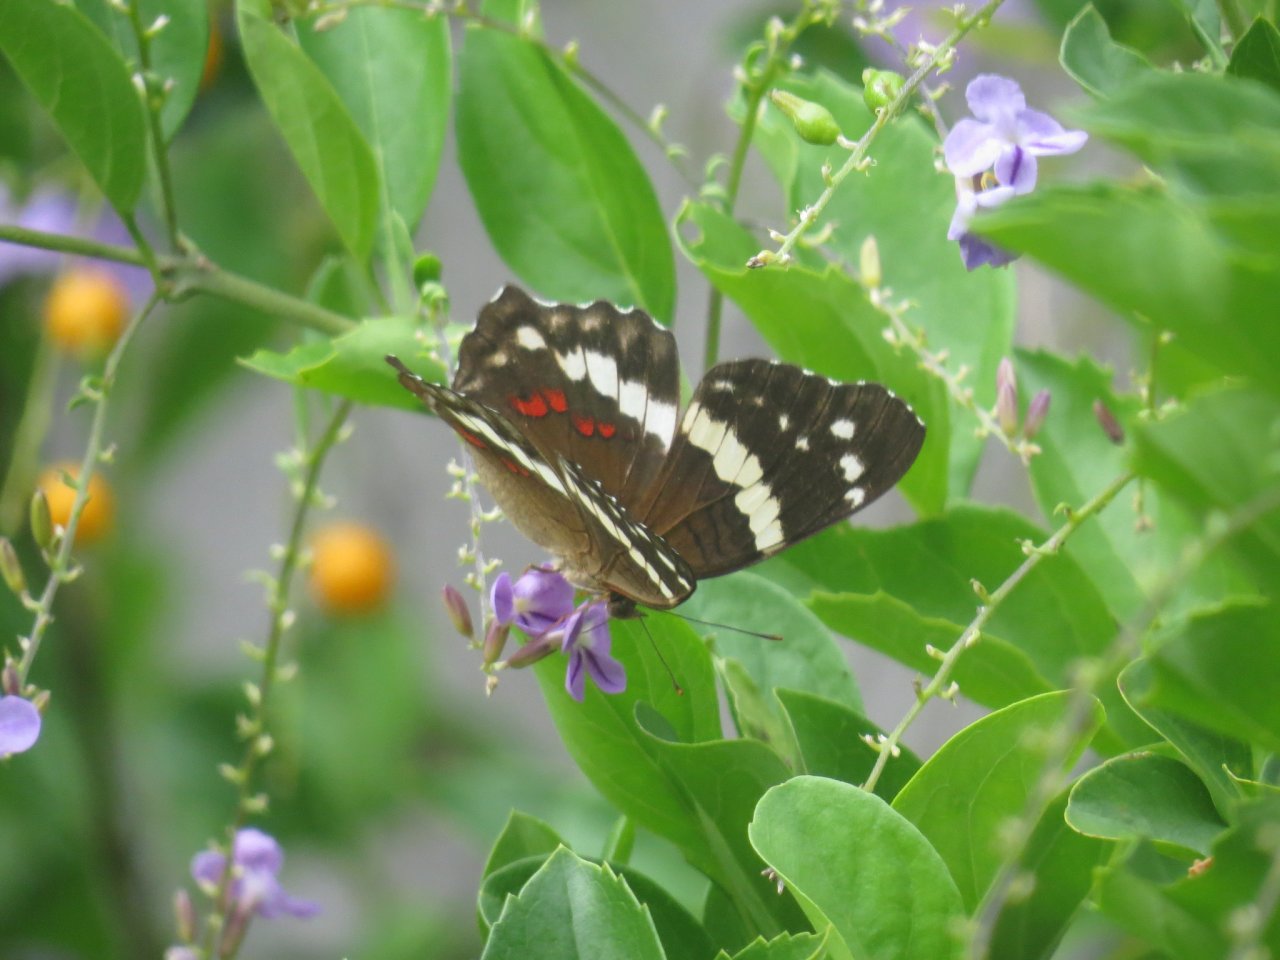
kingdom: Animalia
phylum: Arthropoda
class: Insecta
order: Lepidoptera
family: Nymphalidae
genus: Anartia
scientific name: Anartia fatima
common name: Banded Peacock
